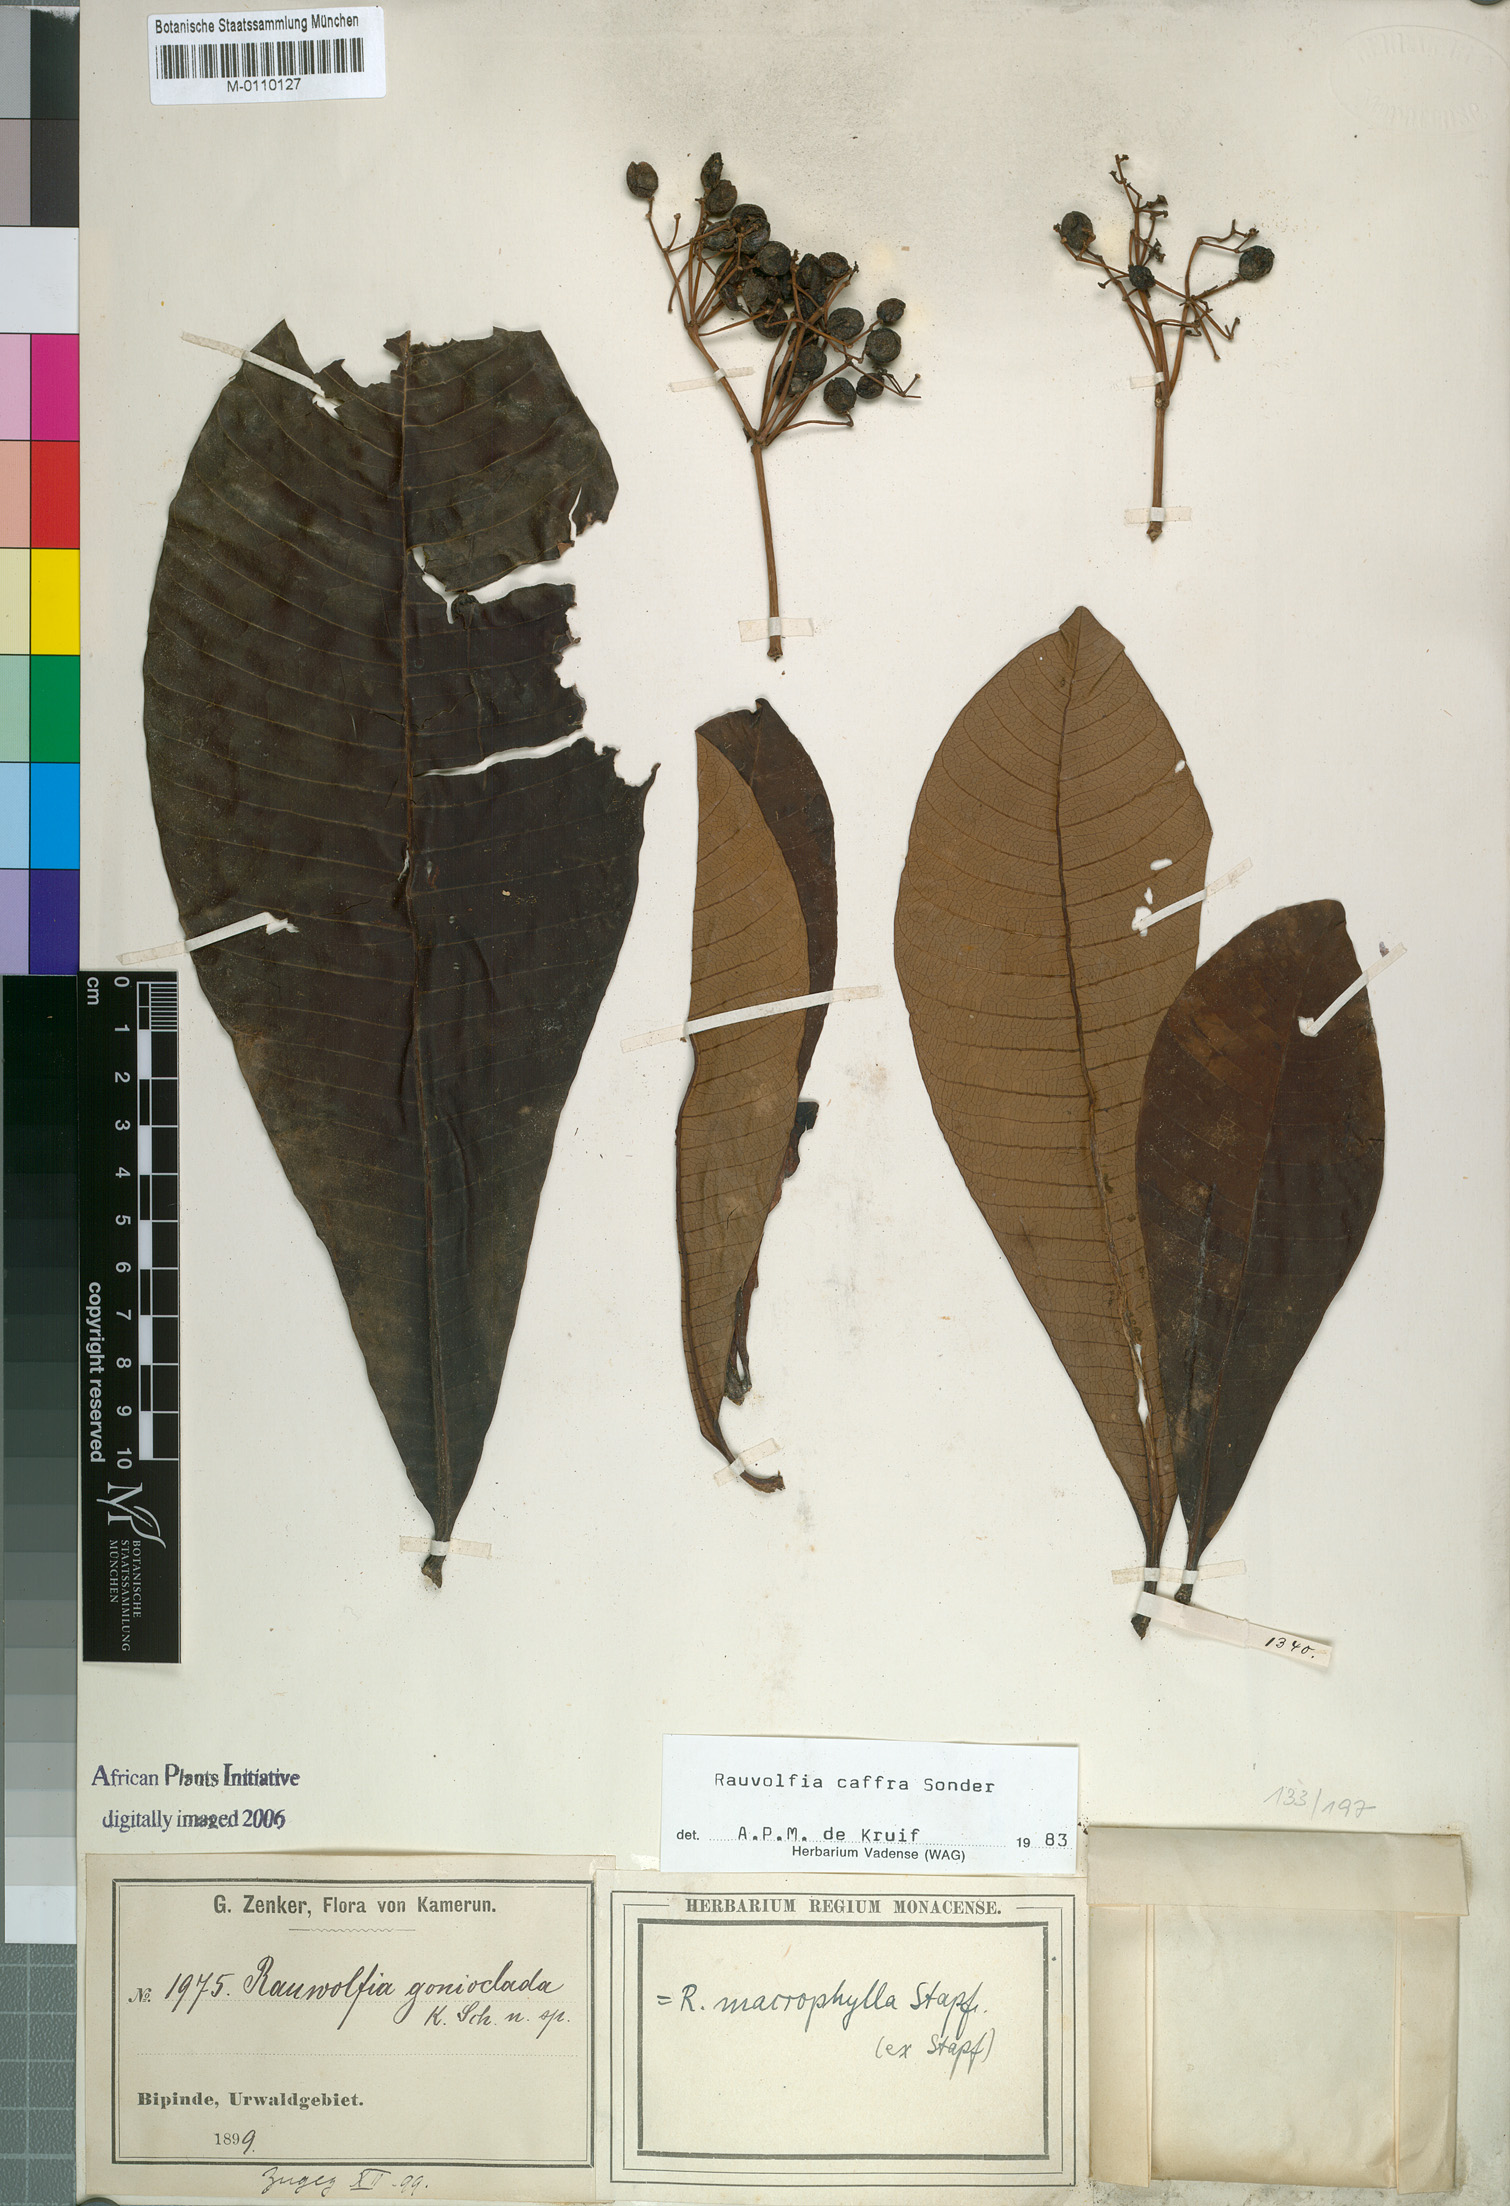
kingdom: Plantae
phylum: Tracheophyta
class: Magnoliopsida
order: Gentianales
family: Apocynaceae
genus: Rauvolfia
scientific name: Rauvolfia caffra
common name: Quininetree
